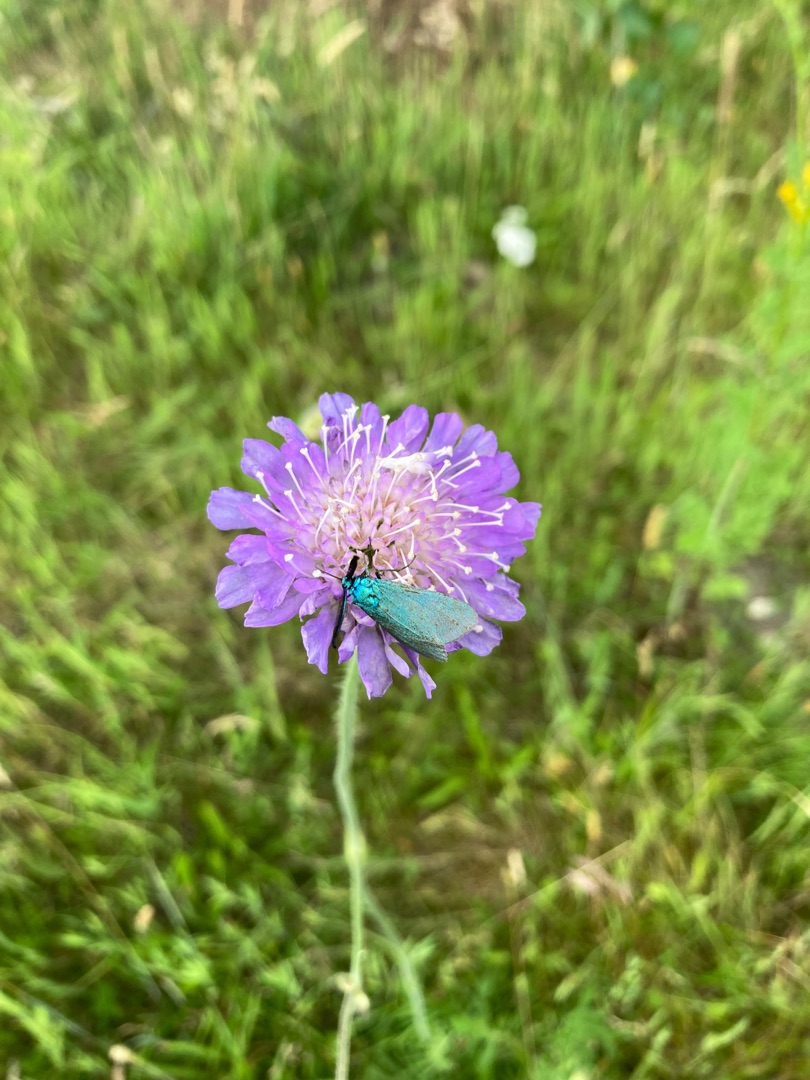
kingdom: Animalia
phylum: Arthropoda
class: Insecta
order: Lepidoptera
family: Zygaenidae
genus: Adscita
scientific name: Adscita statices
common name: Metalvinge
